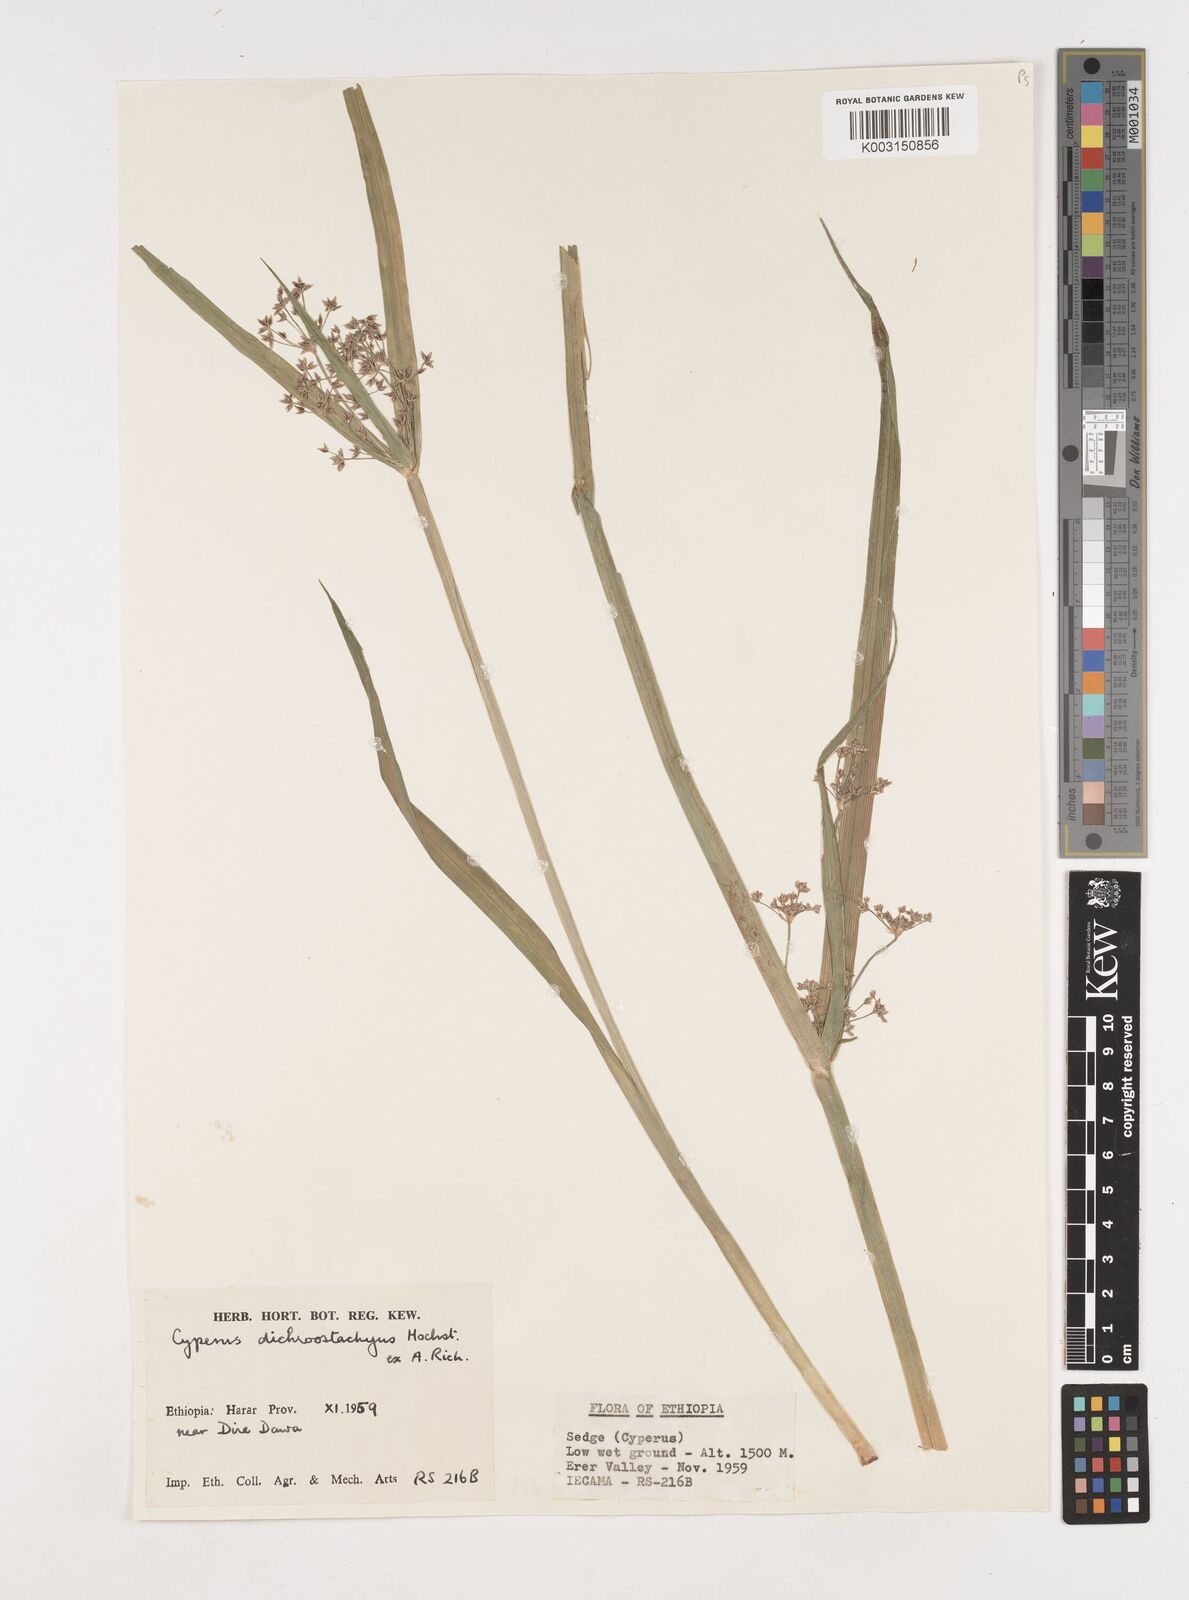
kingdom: Plantae
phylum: Tracheophyta
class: Liliopsida
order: Poales
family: Cyperaceae
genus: Cyperus
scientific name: Cyperus dichrostachyus
